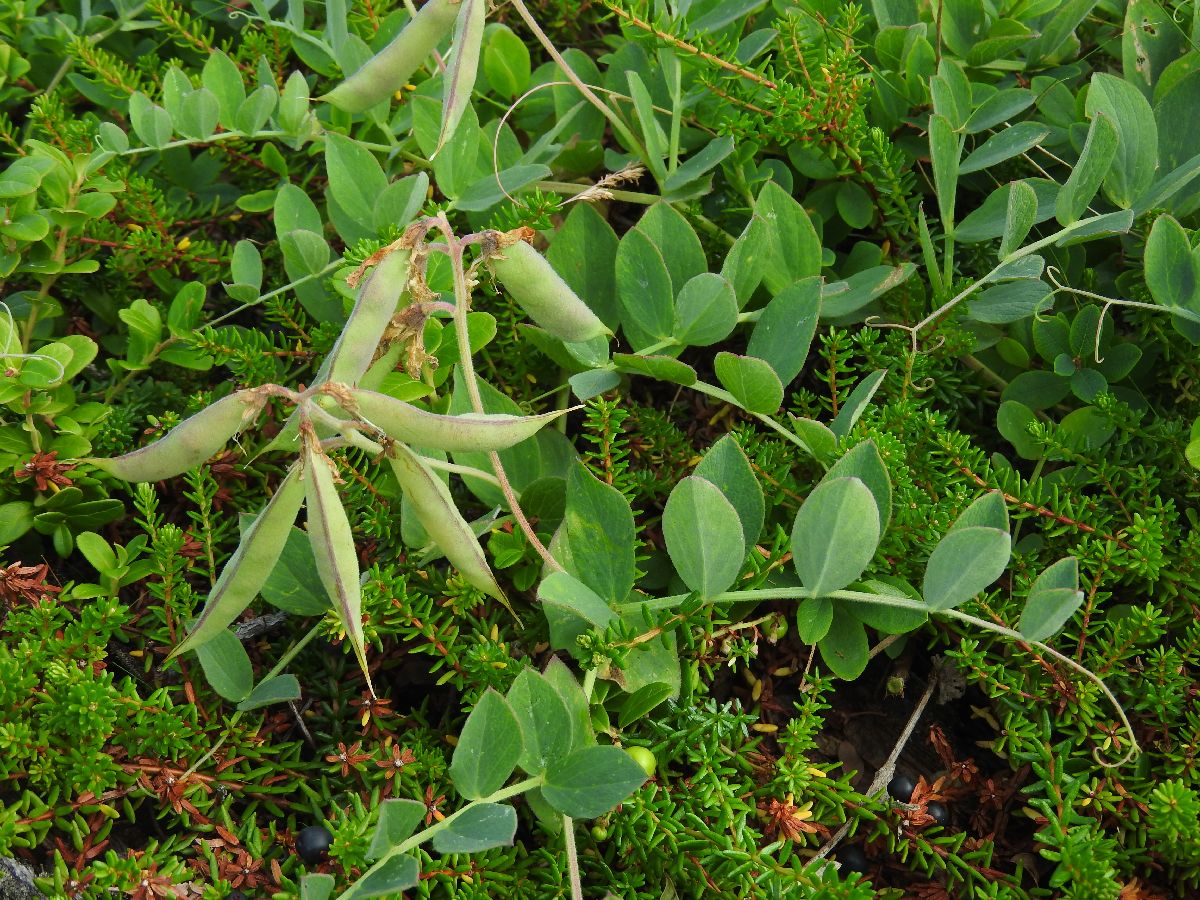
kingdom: Plantae
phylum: Tracheophyta
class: Magnoliopsida
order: Fabales
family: Fabaceae
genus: Lathyrus
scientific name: Lathyrus japonicus
